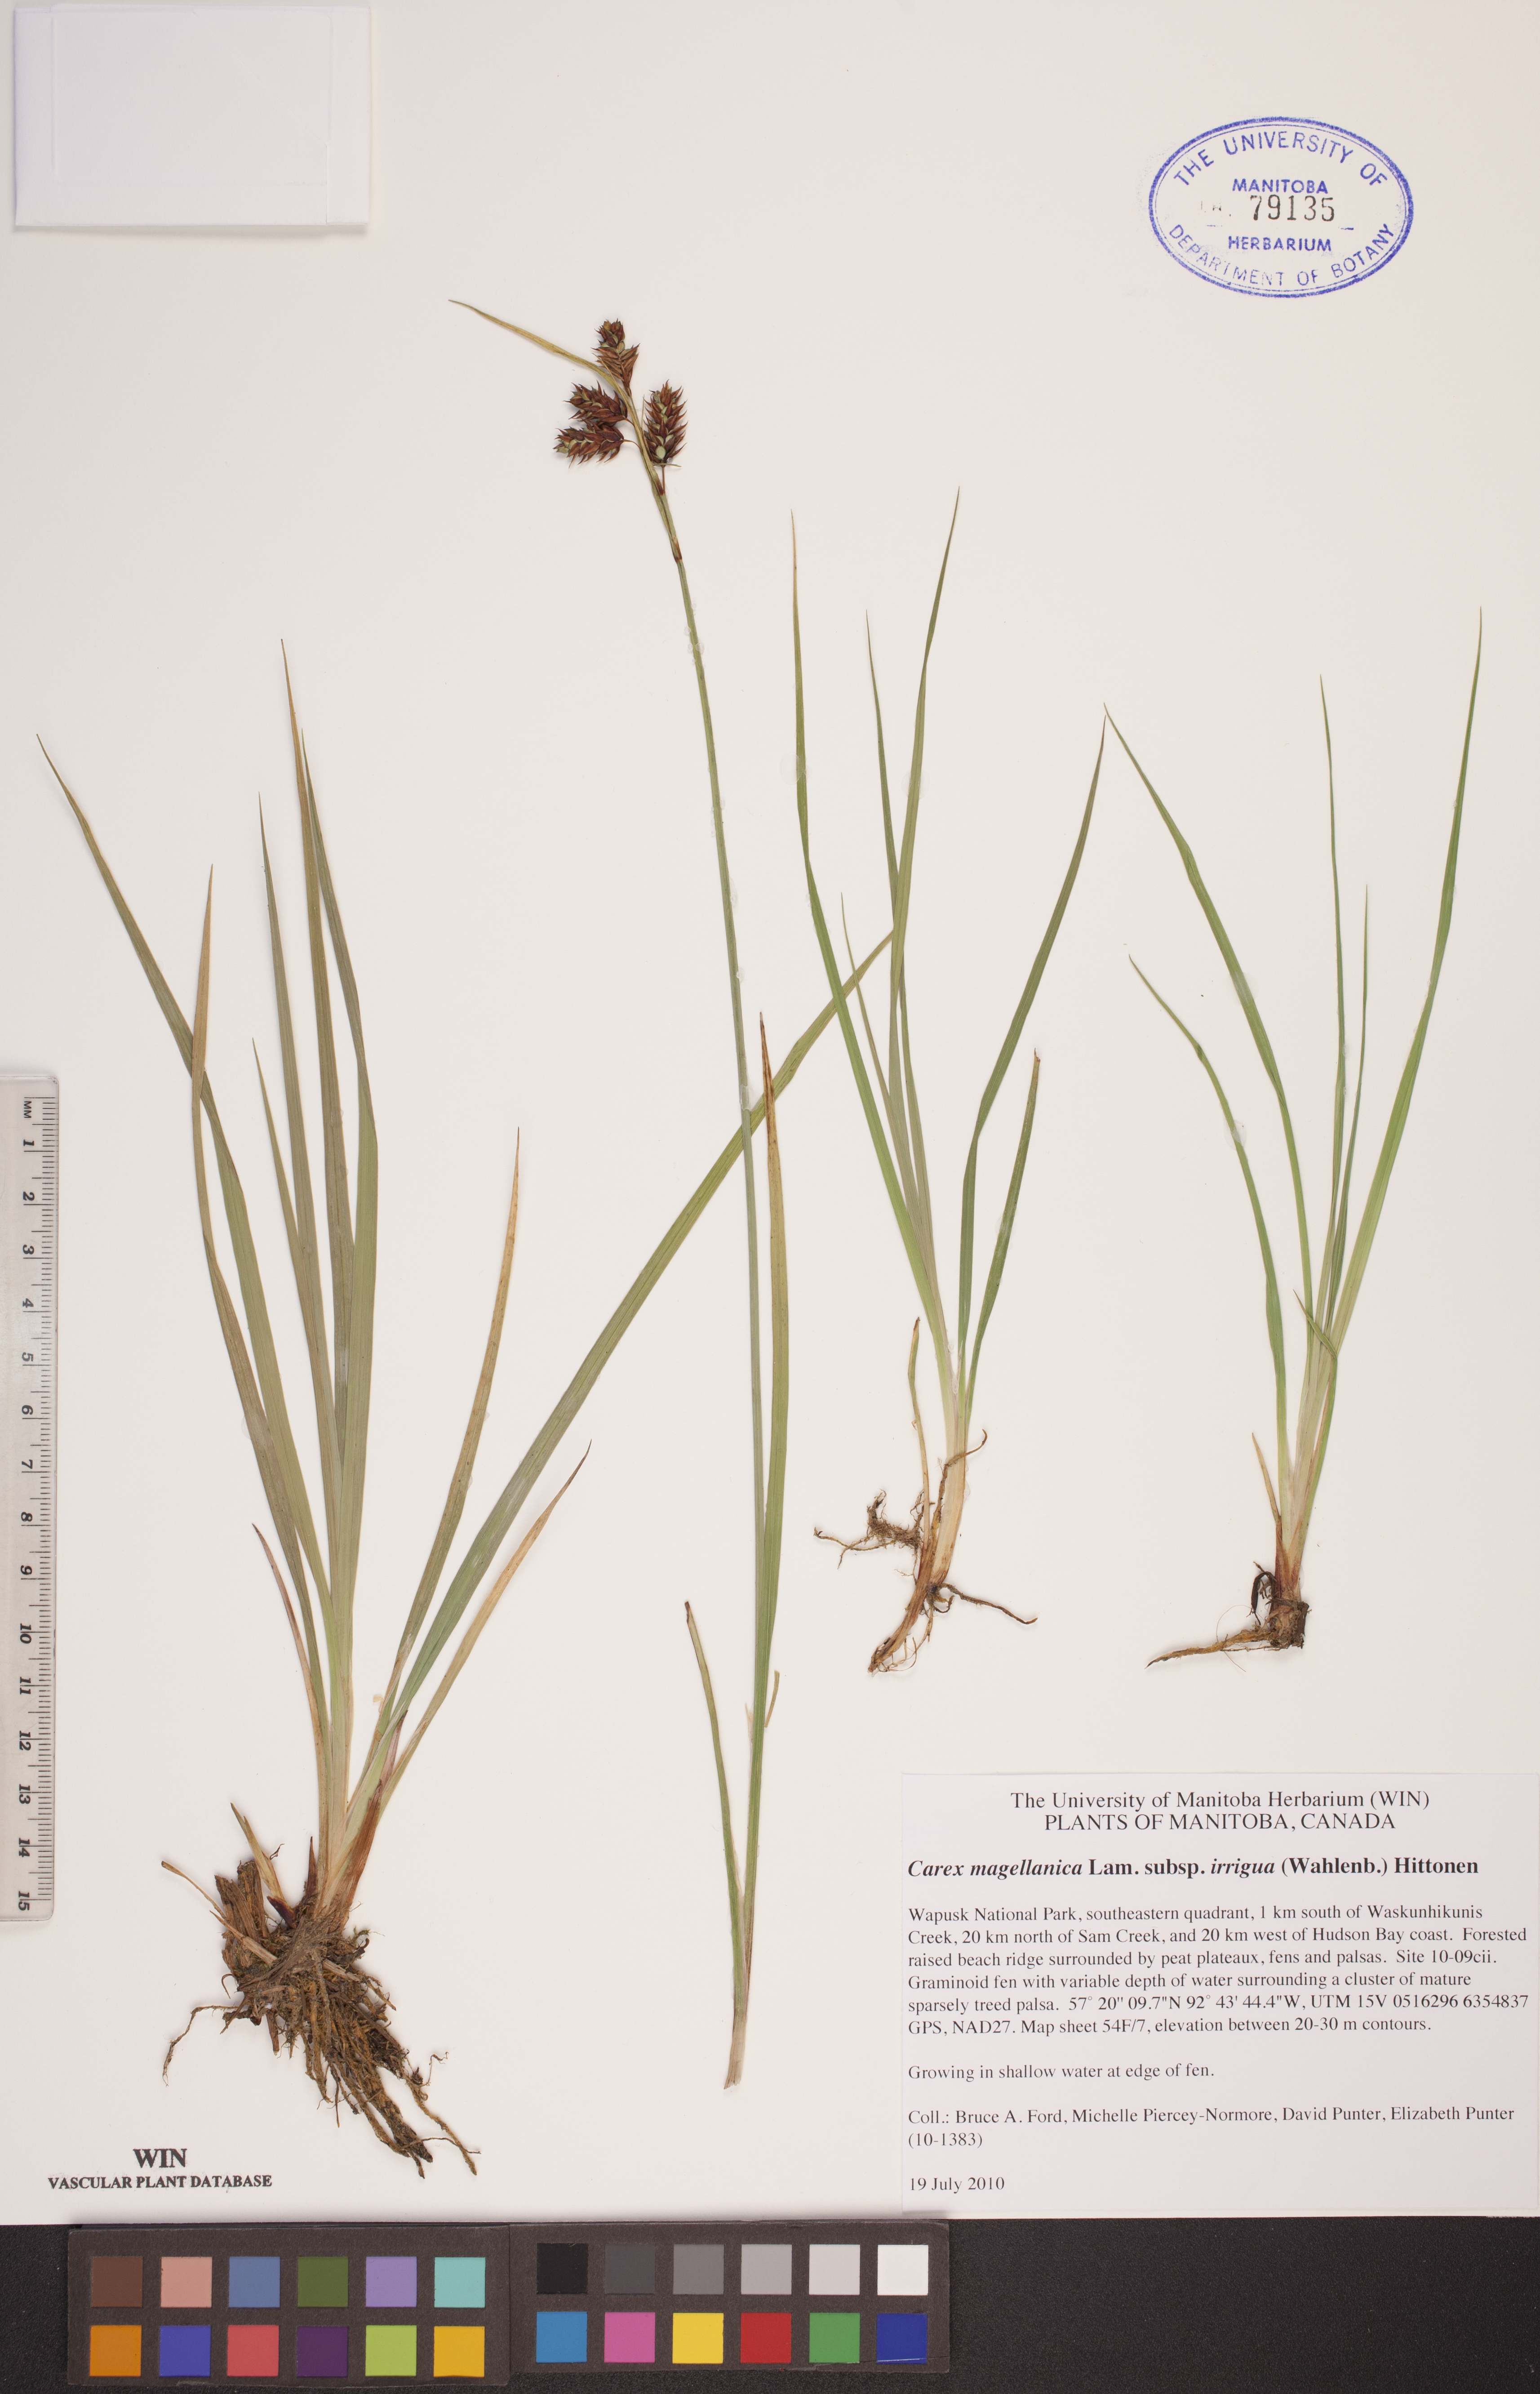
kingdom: Plantae
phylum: Tracheophyta
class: Liliopsida
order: Poales
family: Cyperaceae
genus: Carex
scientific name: Carex magellanica
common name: Bog sedge
